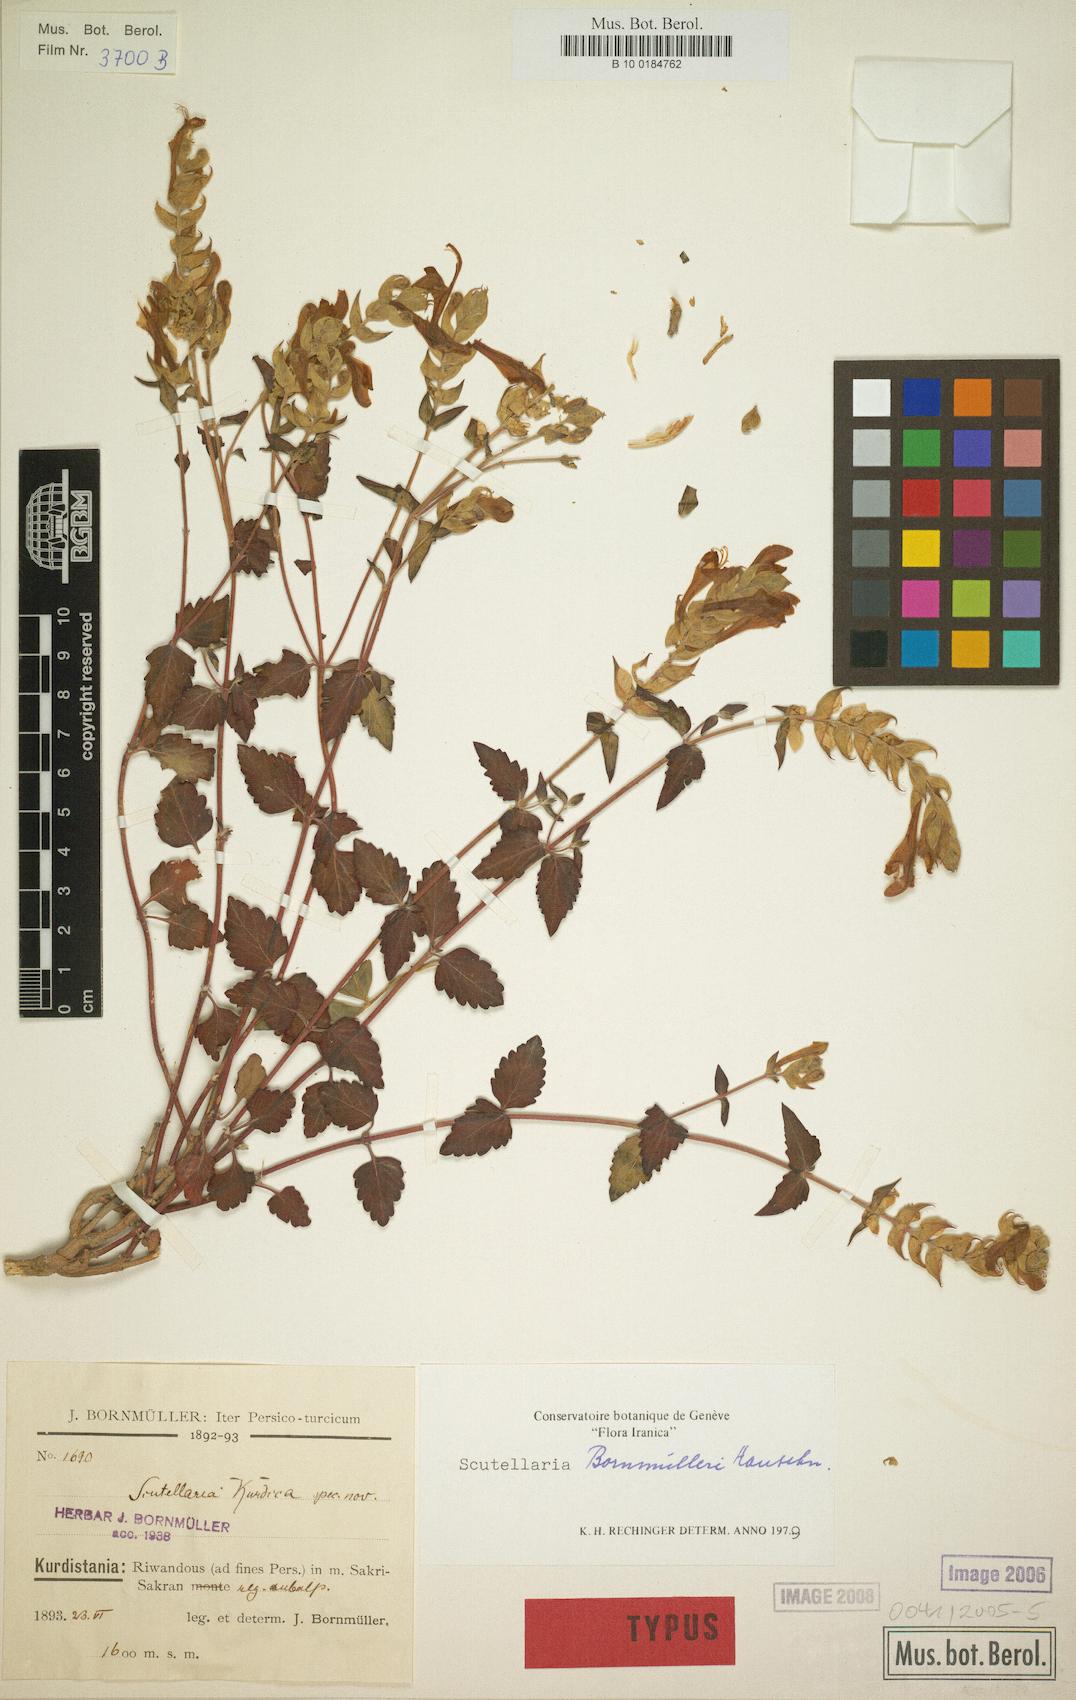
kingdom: Plantae
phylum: Tracheophyta
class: Magnoliopsida
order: Lamiales
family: Lamiaceae
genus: Scutellaria
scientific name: Scutellaria bornmuelleri
